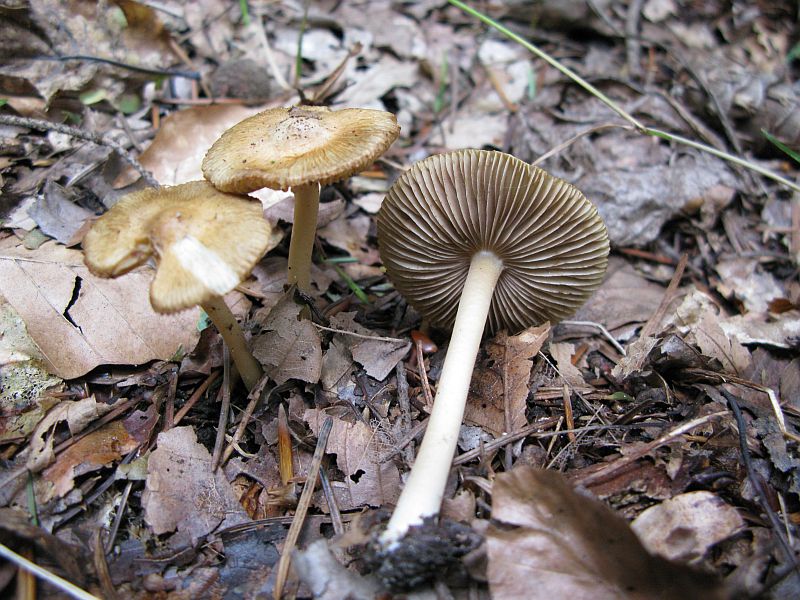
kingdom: Fungi
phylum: Basidiomycota
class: Agaricomycetes
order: Agaricales
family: Inocybaceae
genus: Inocybe
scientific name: Inocybe mixtilis
